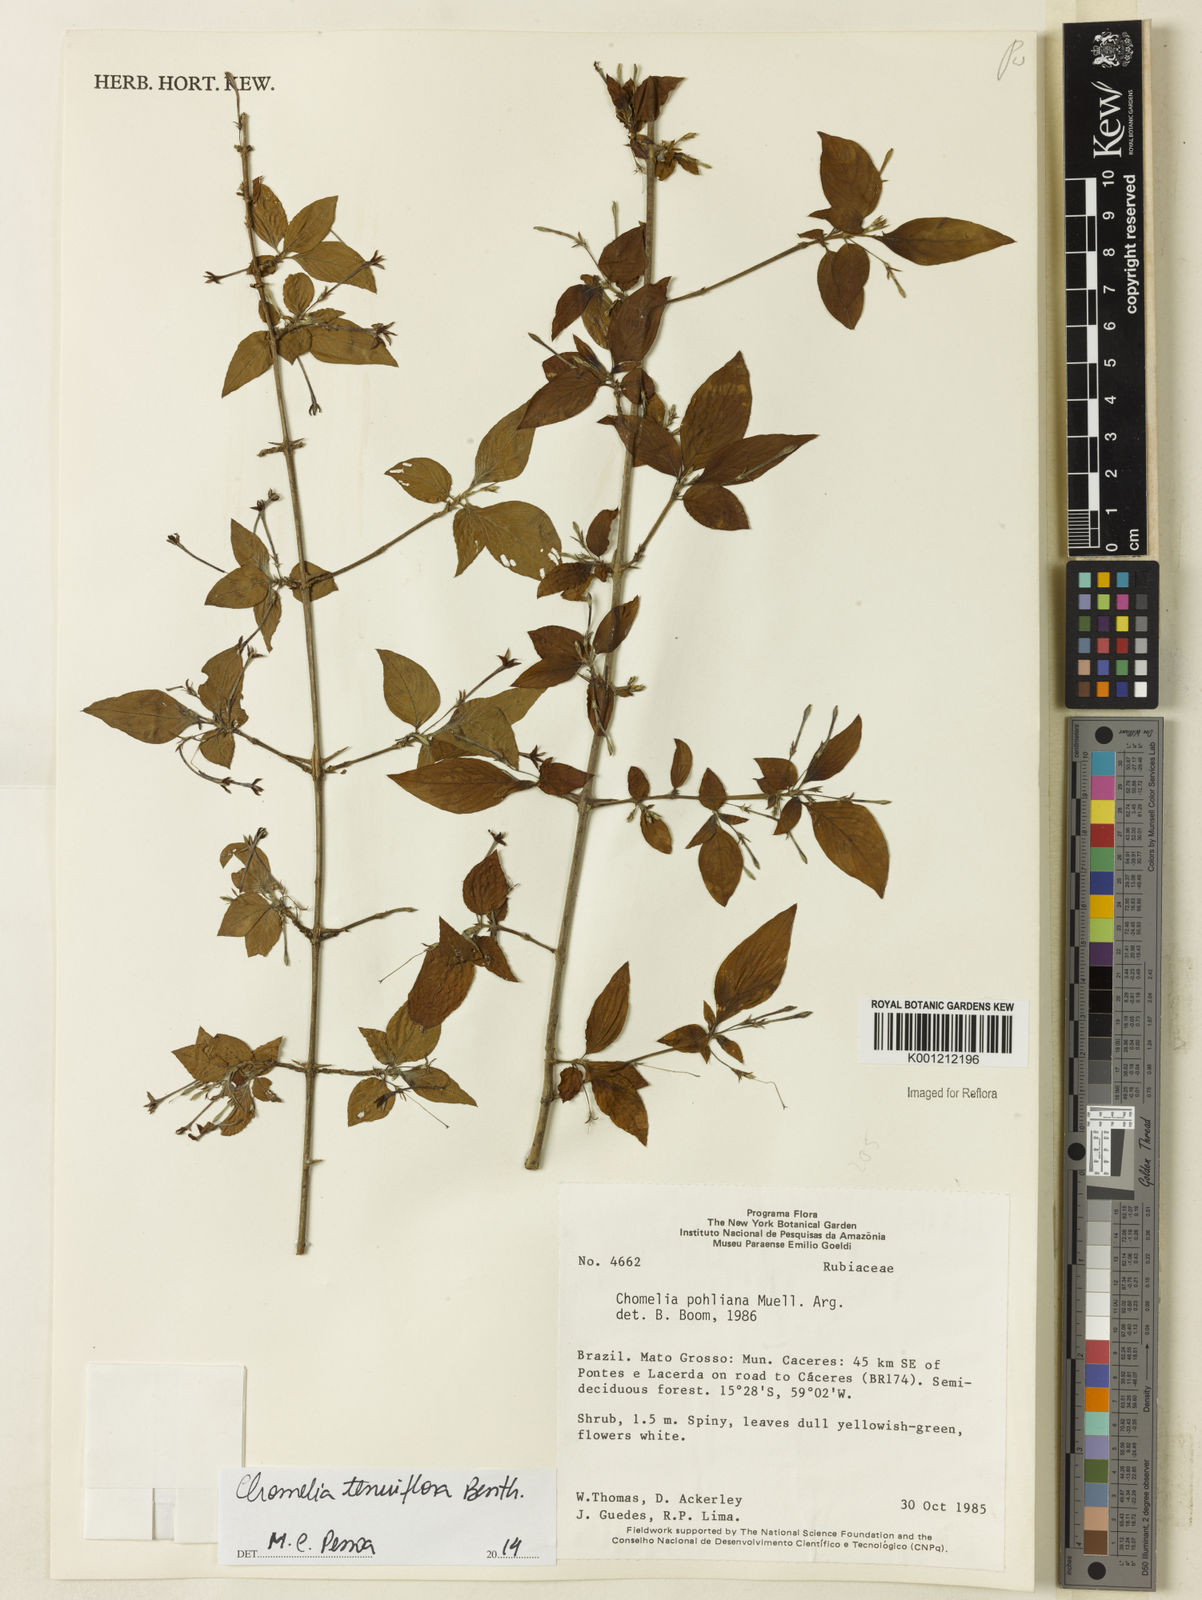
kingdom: Plantae
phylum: Tracheophyta
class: Magnoliopsida
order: Gentianales
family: Rubiaceae
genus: Chomelia
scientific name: Chomelia tenuiflora
